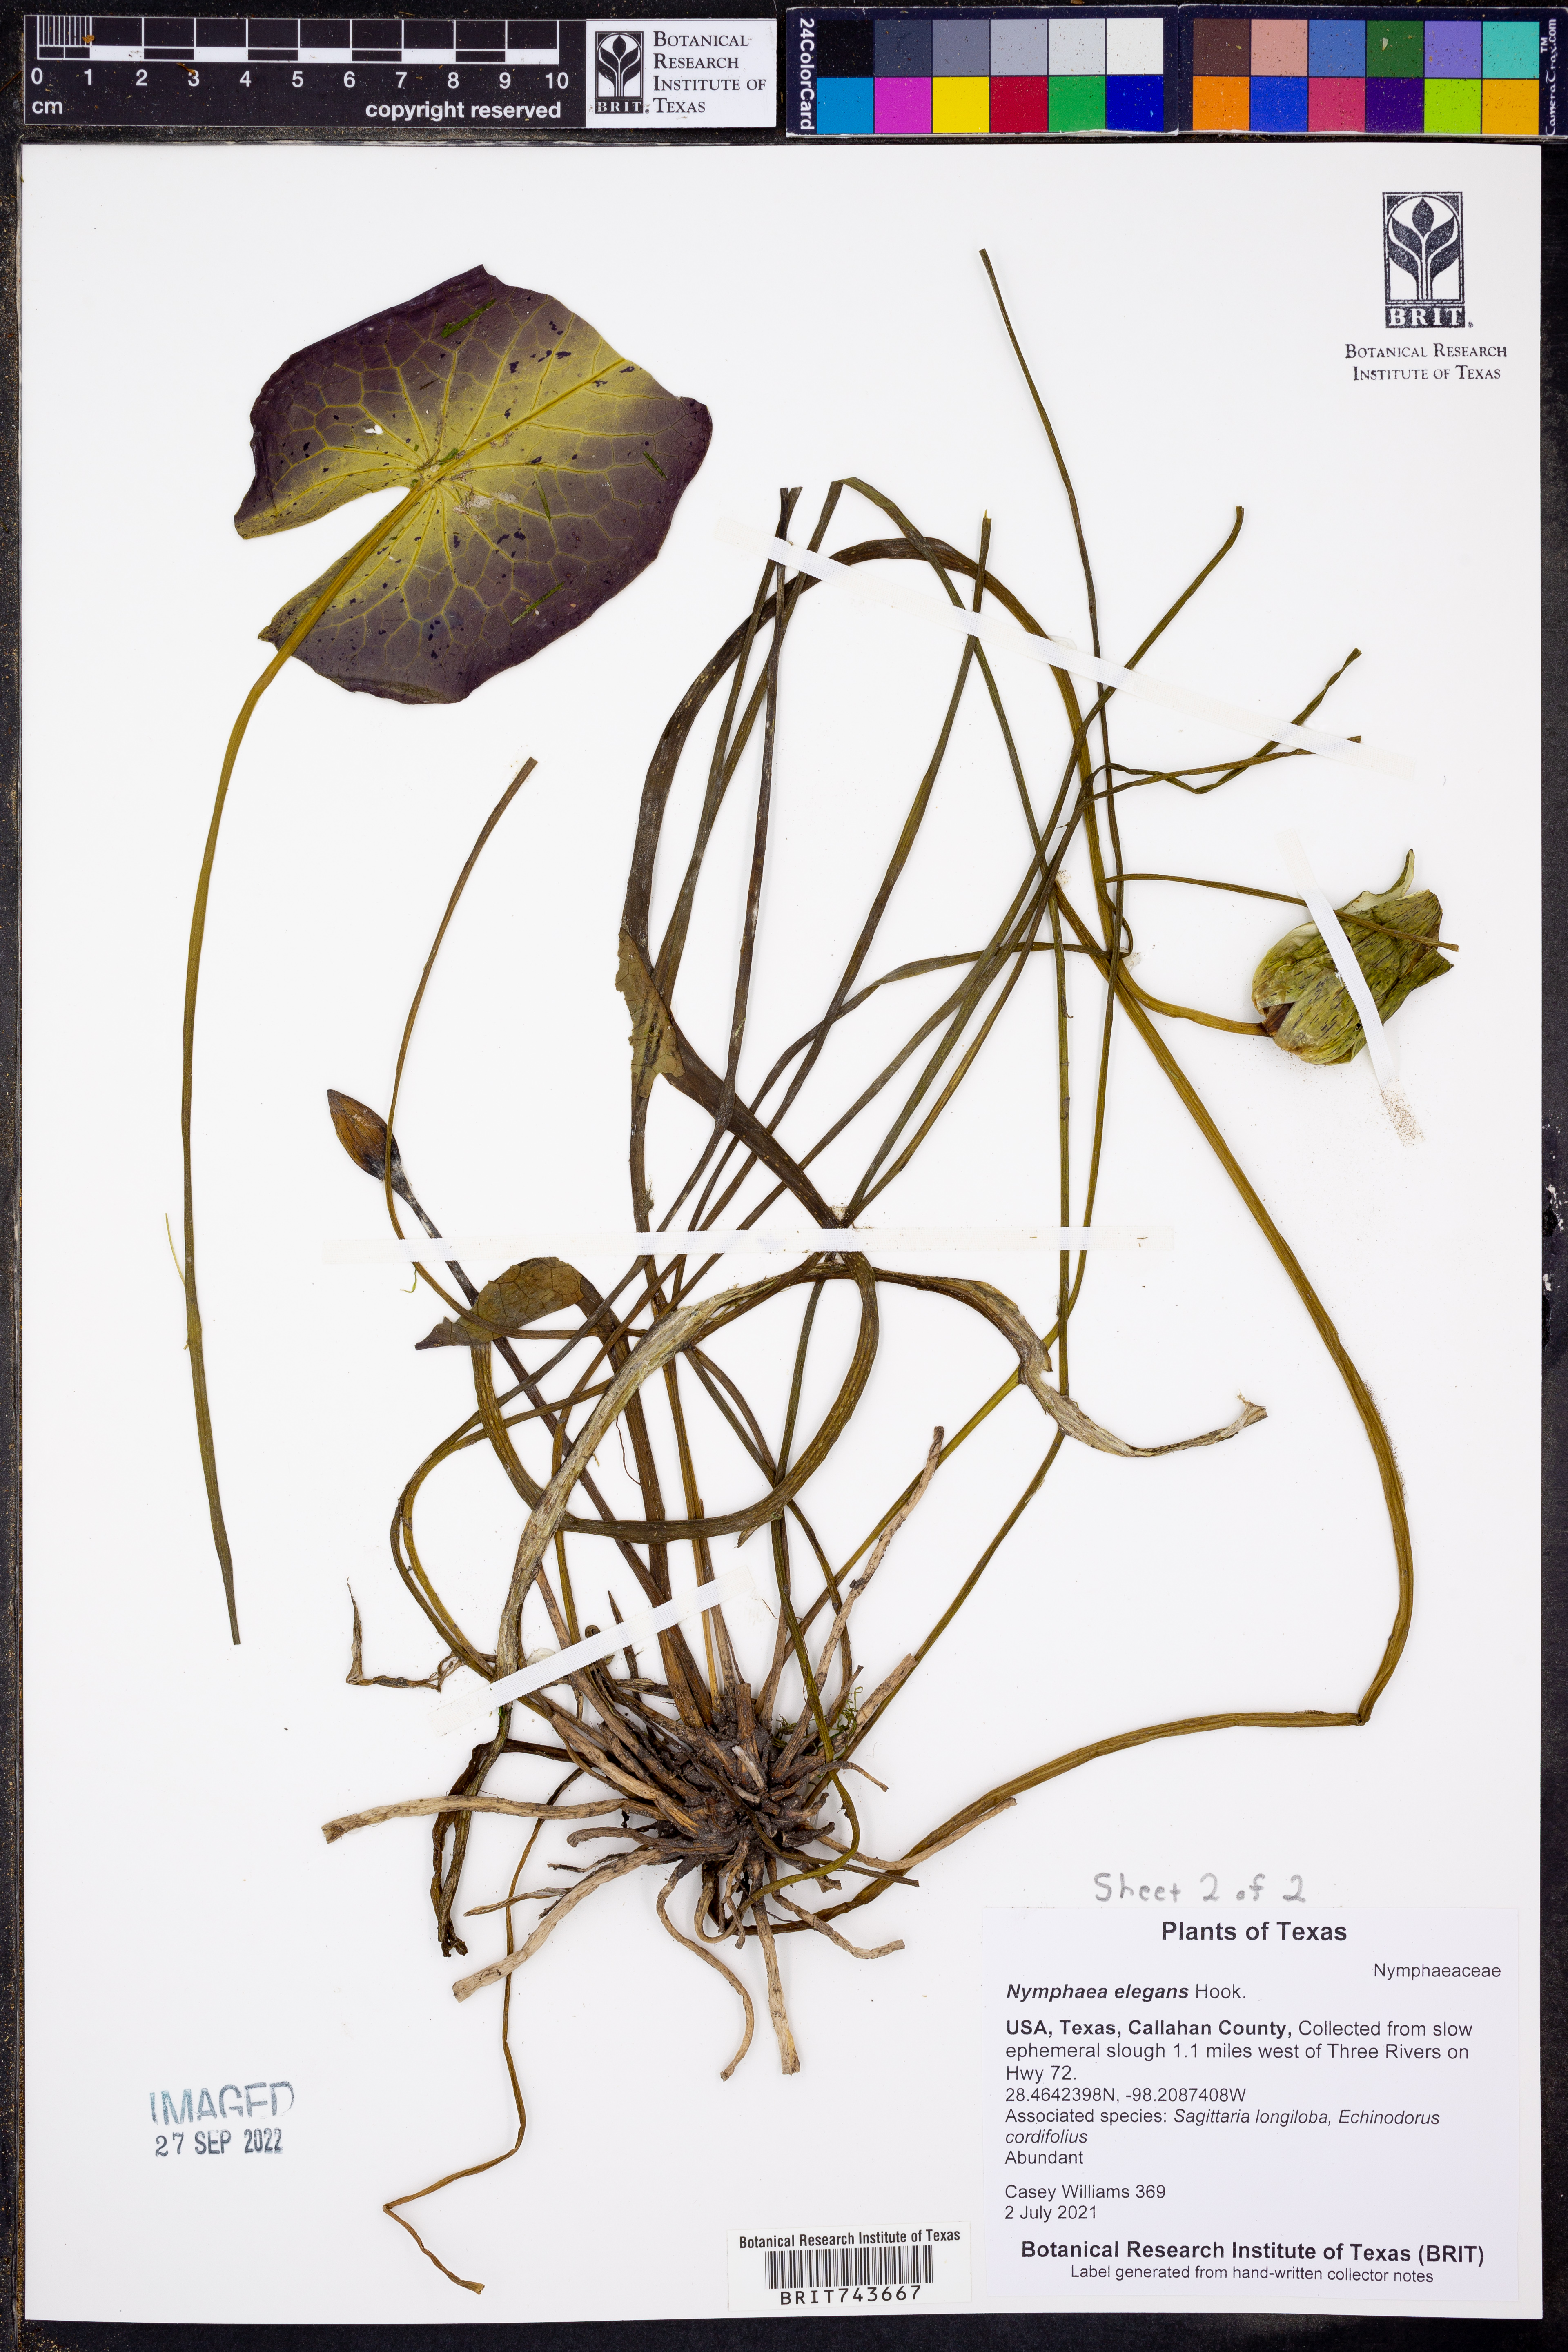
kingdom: Plantae
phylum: Tracheophyta
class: Magnoliopsida
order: Nymphaeales
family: Nymphaeaceae
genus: Nymphaea
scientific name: Nymphaea elegans
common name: Blue water-lily
